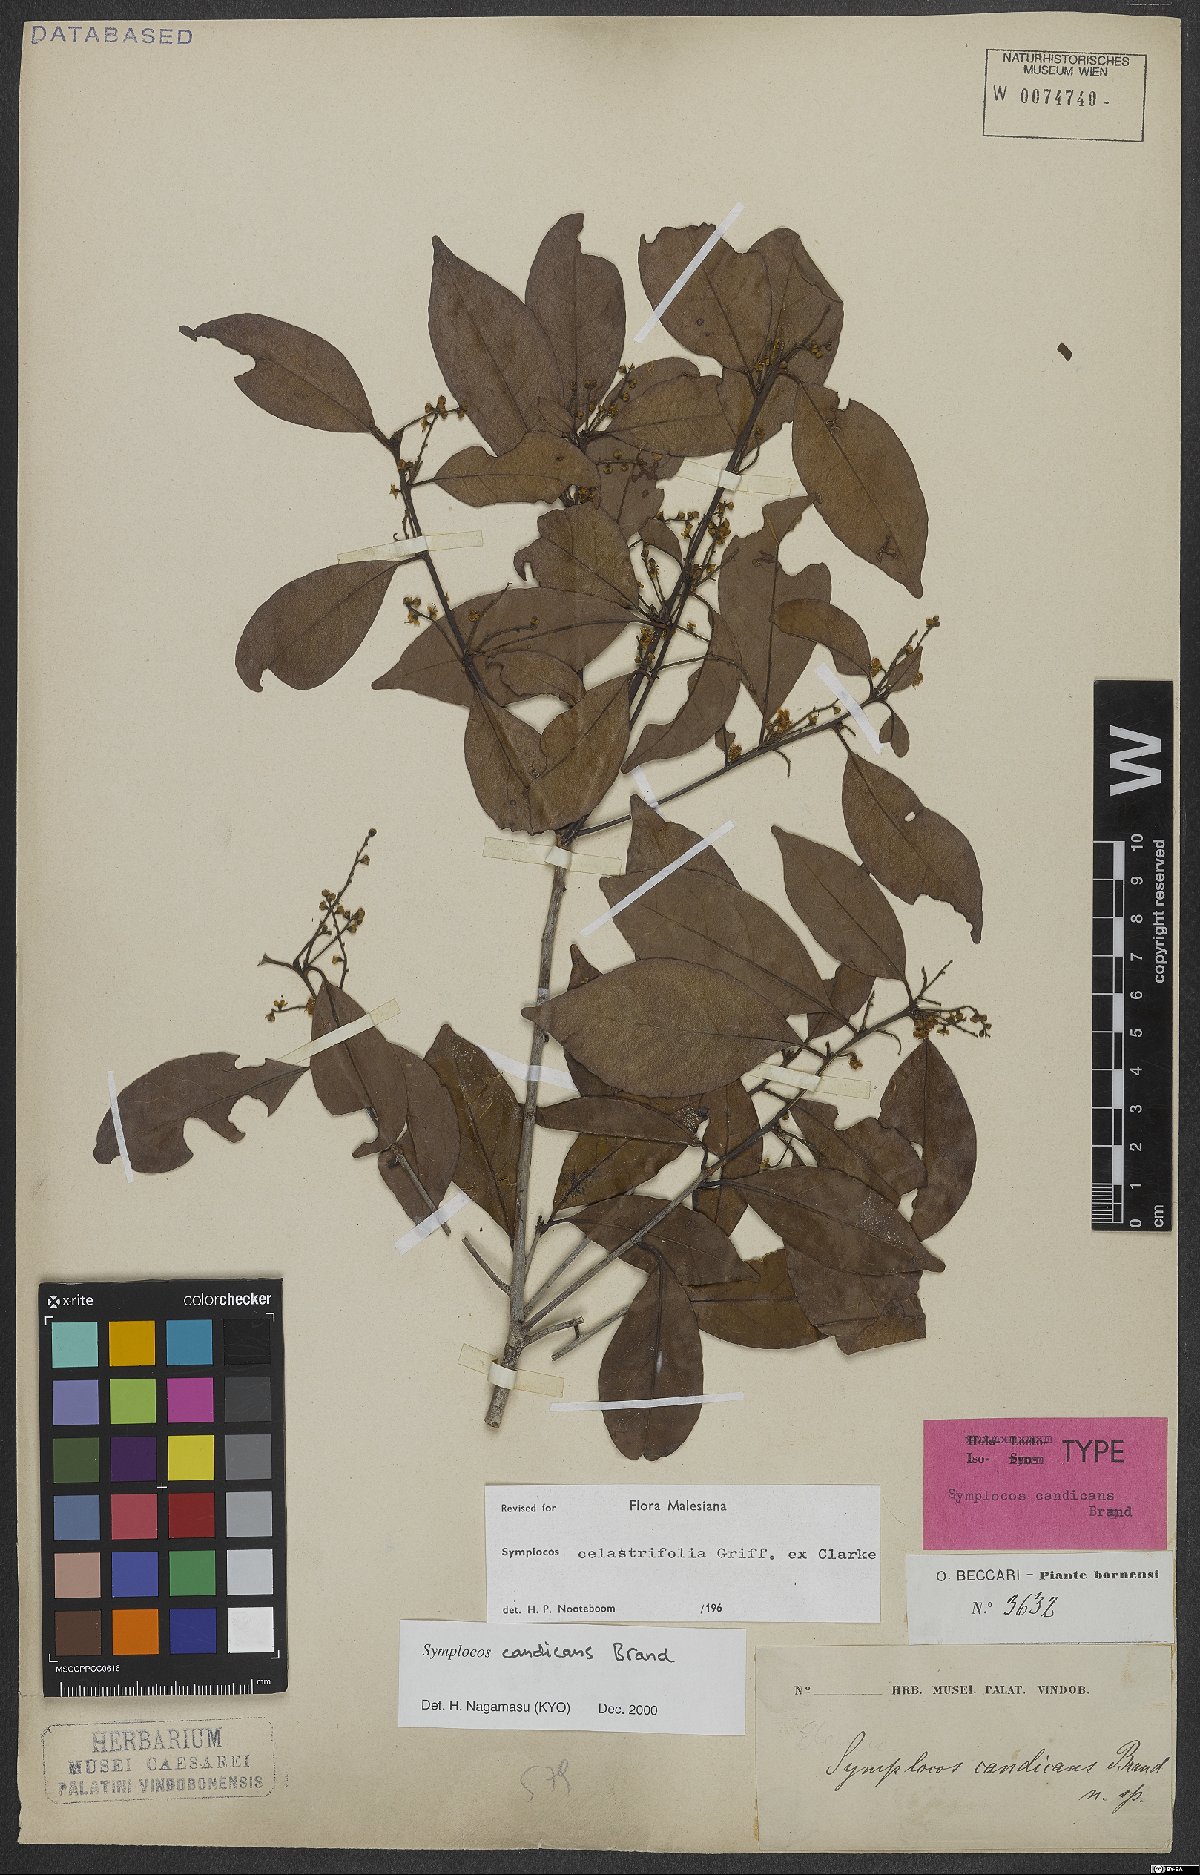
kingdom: Plantae
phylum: Tracheophyta
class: Magnoliopsida
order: Ericales
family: Symplocaceae
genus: Symplocos
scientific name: Symplocos celastrifolia
